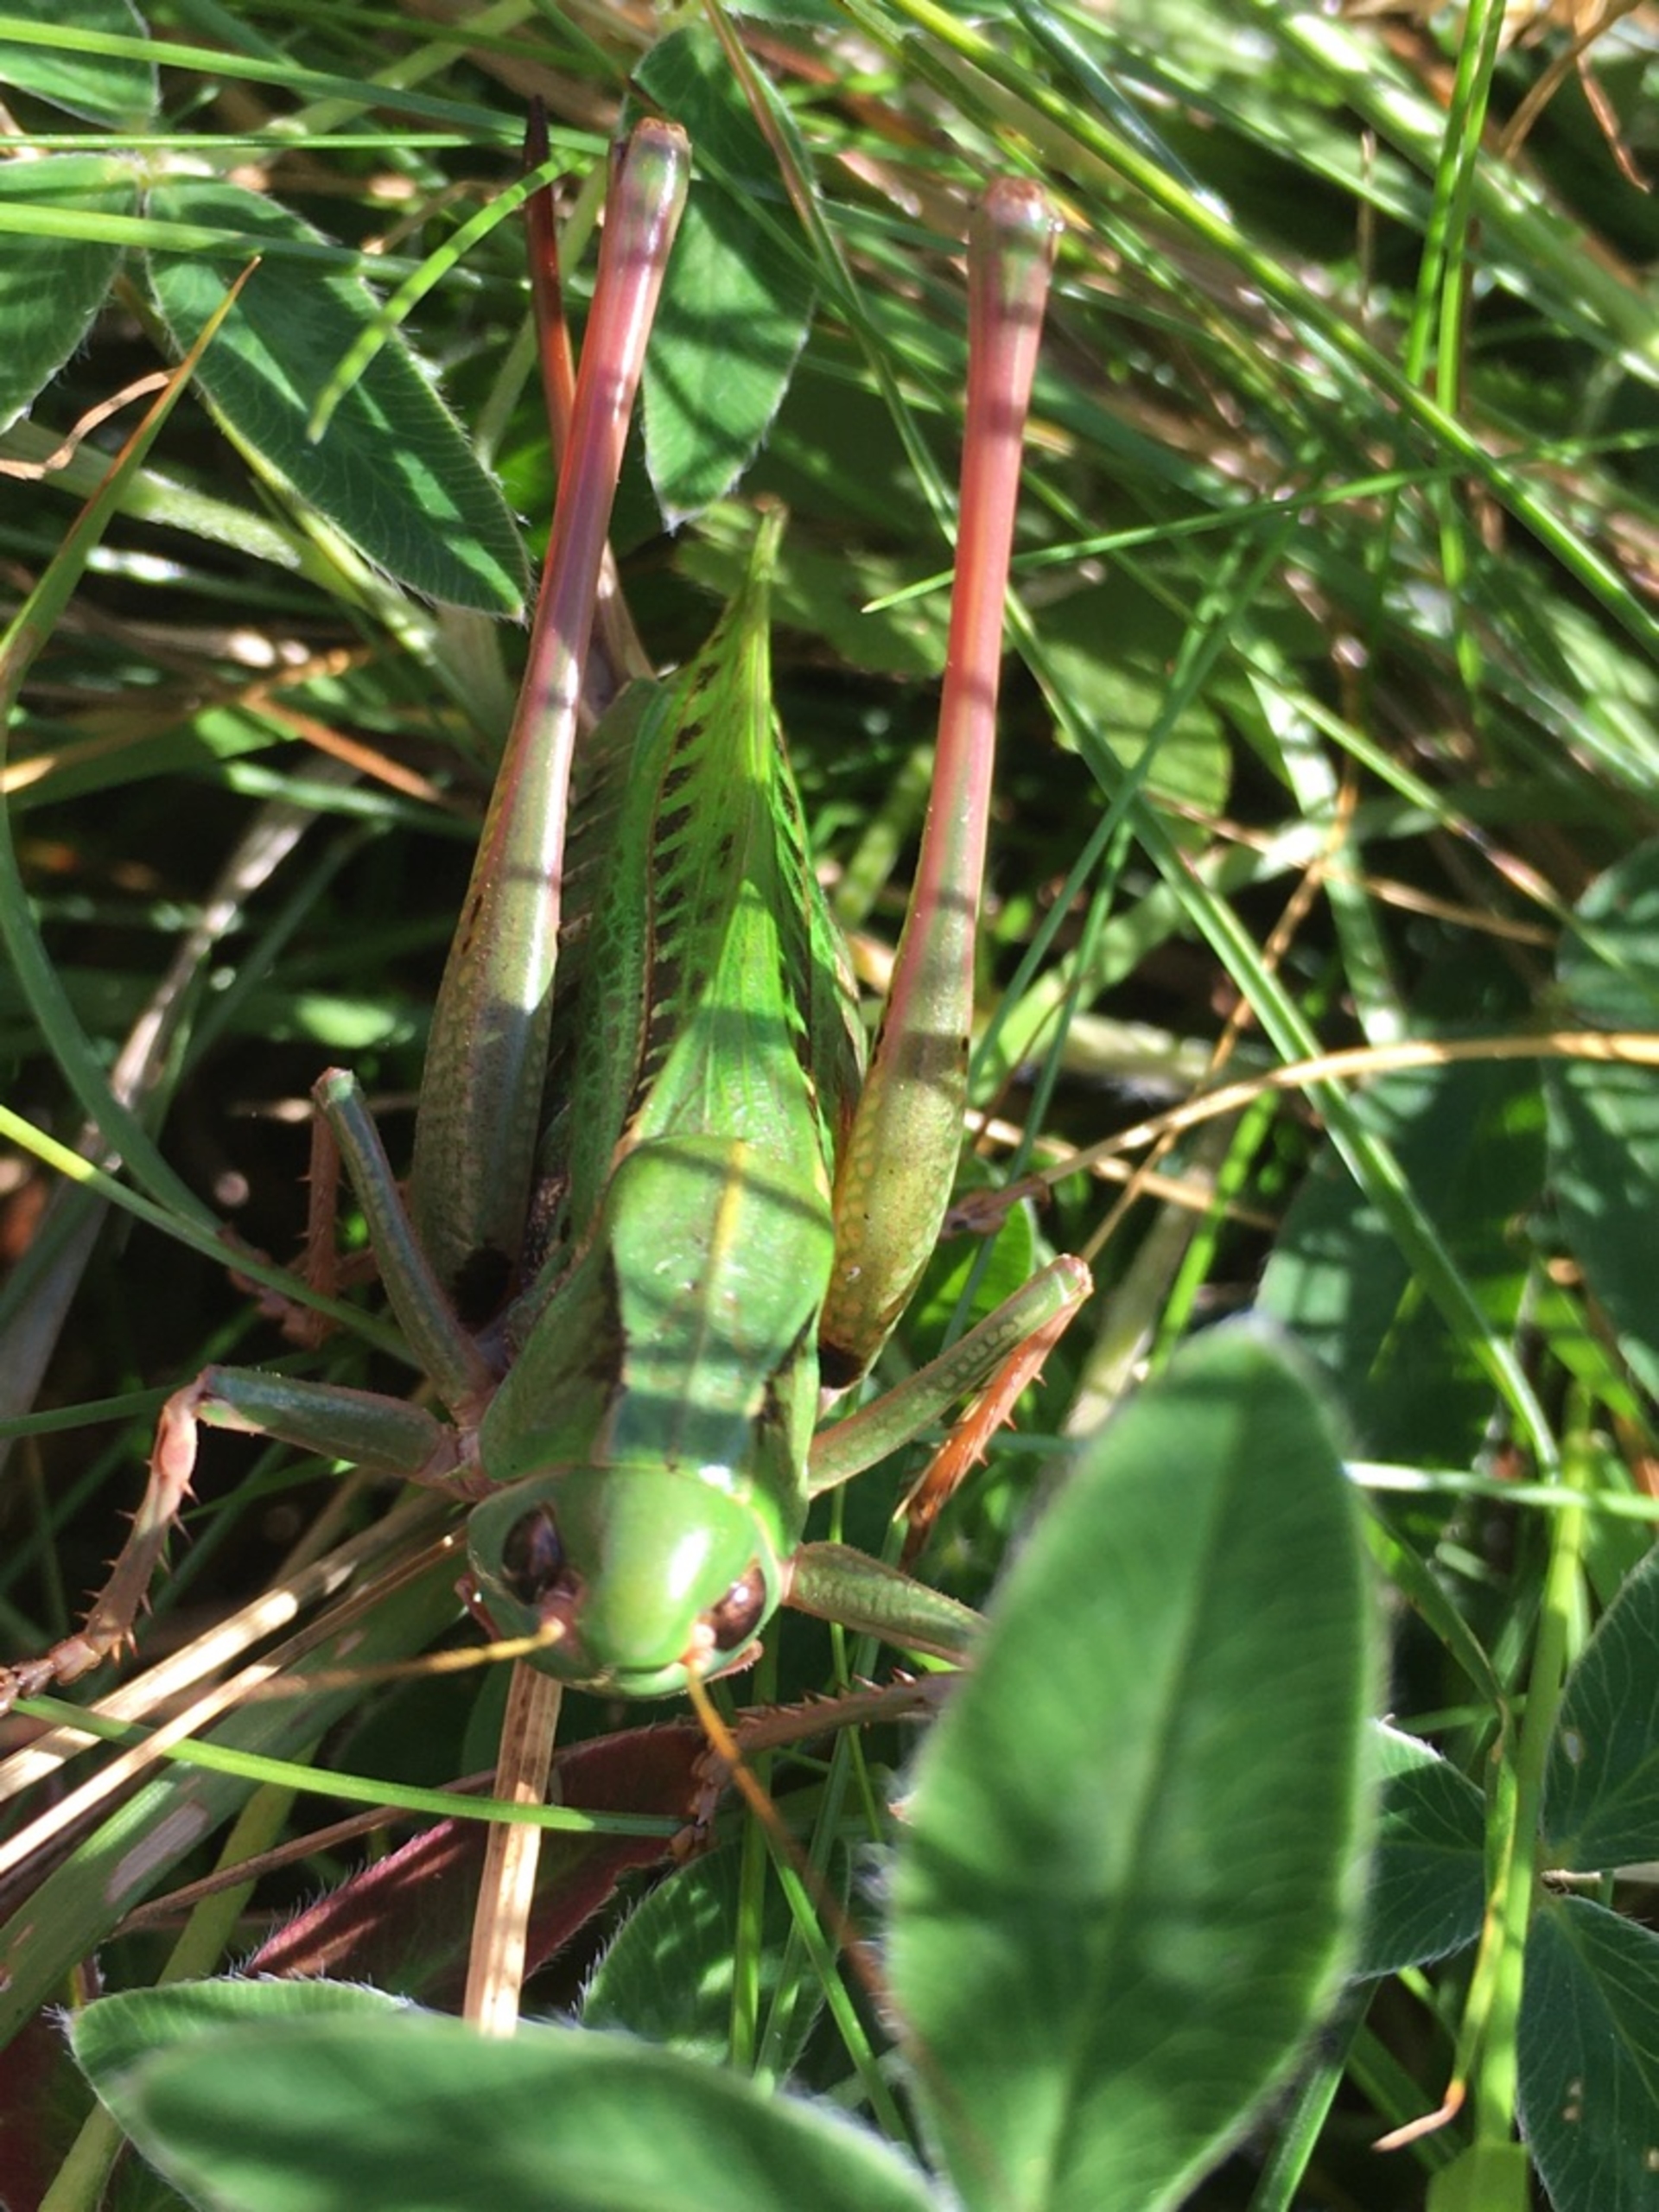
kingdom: Animalia
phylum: Arthropoda
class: Insecta
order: Orthoptera
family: Tettigoniidae
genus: Decticus
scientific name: Decticus verrucivorus
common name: Vortebider
